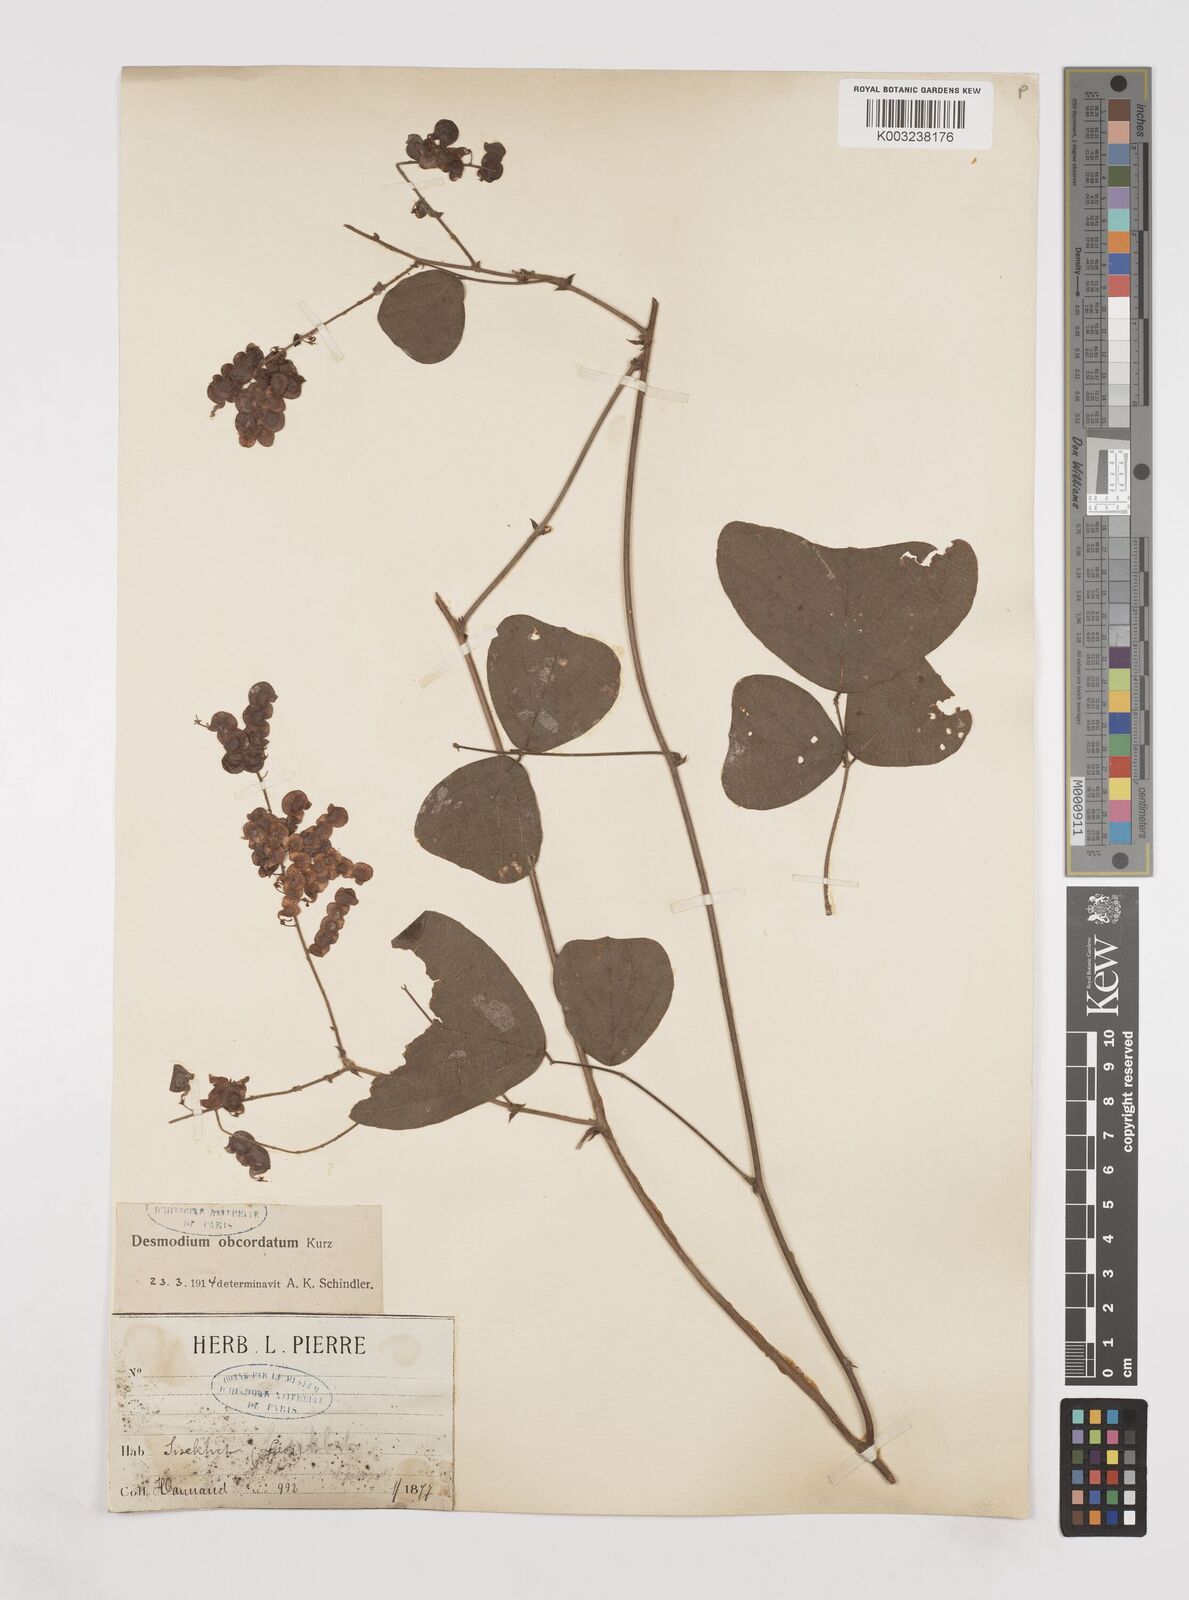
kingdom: Plantae
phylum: Tracheophyta
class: Magnoliopsida
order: Fabales
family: Fabaceae
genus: Hegnera
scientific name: Hegnera obcordata
